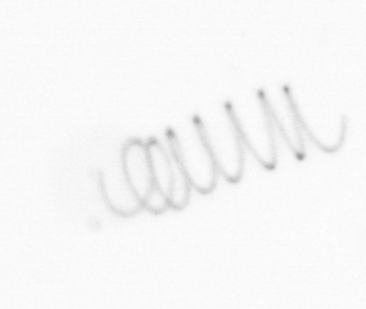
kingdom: Chromista
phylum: Ochrophyta
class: Bacillariophyceae
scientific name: Bacillariophyceae
